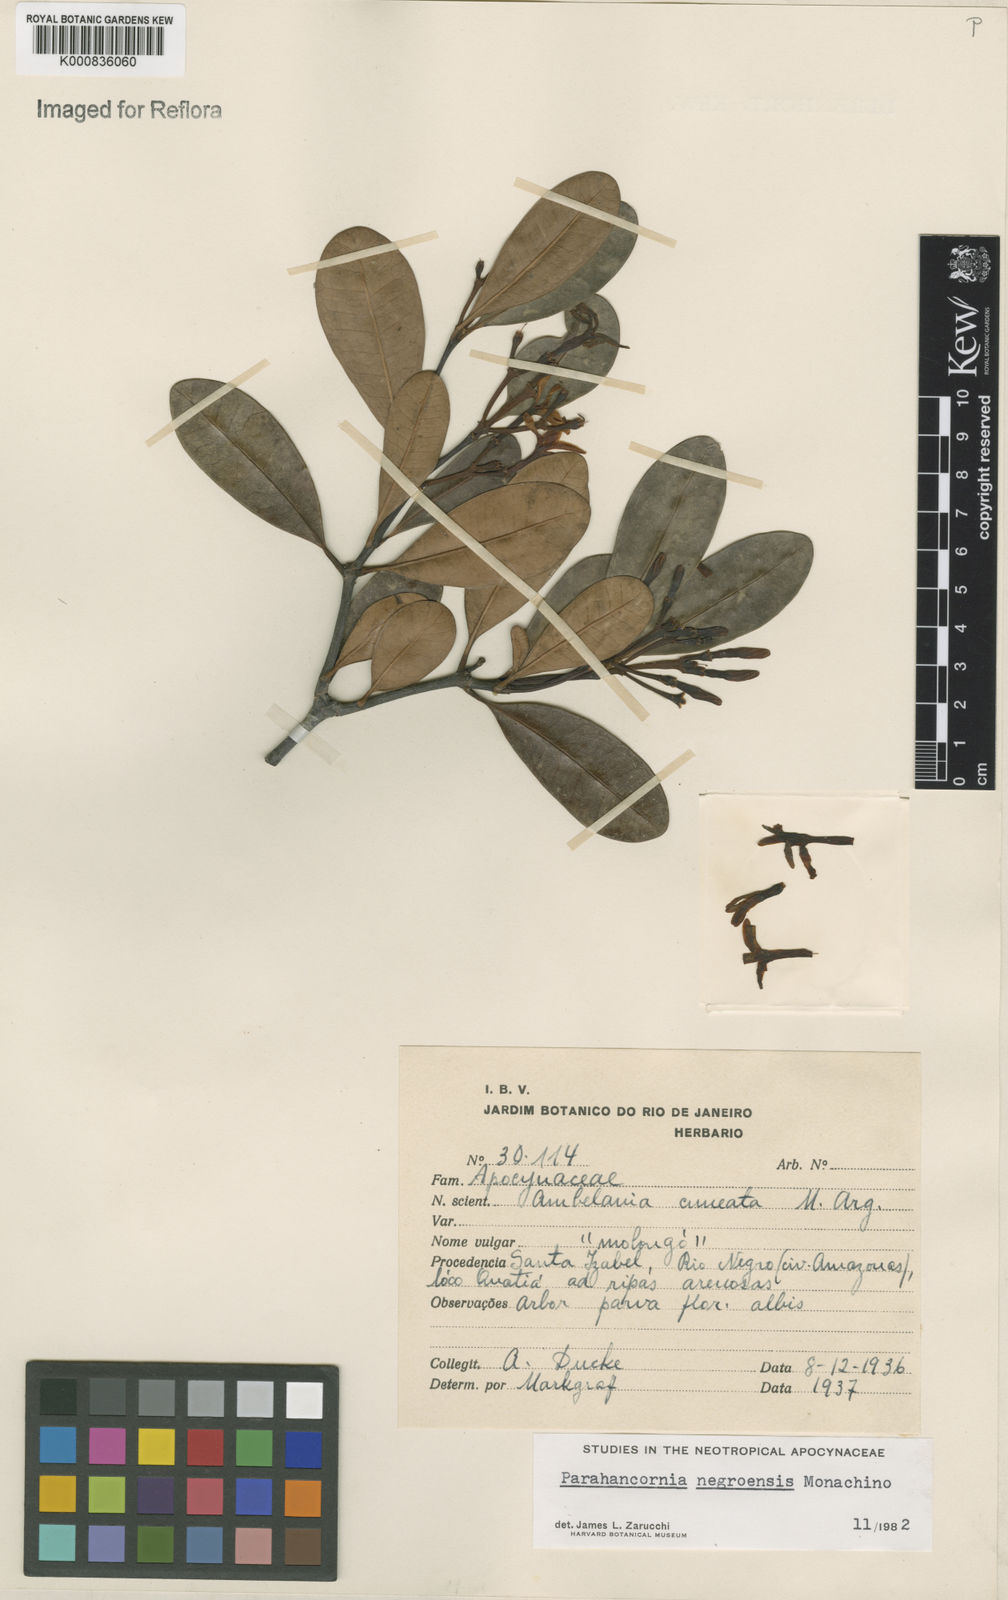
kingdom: Plantae
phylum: Tracheophyta
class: Magnoliopsida
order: Gentianales
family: Apocynaceae
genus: Parahancornia
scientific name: Parahancornia negroensis
